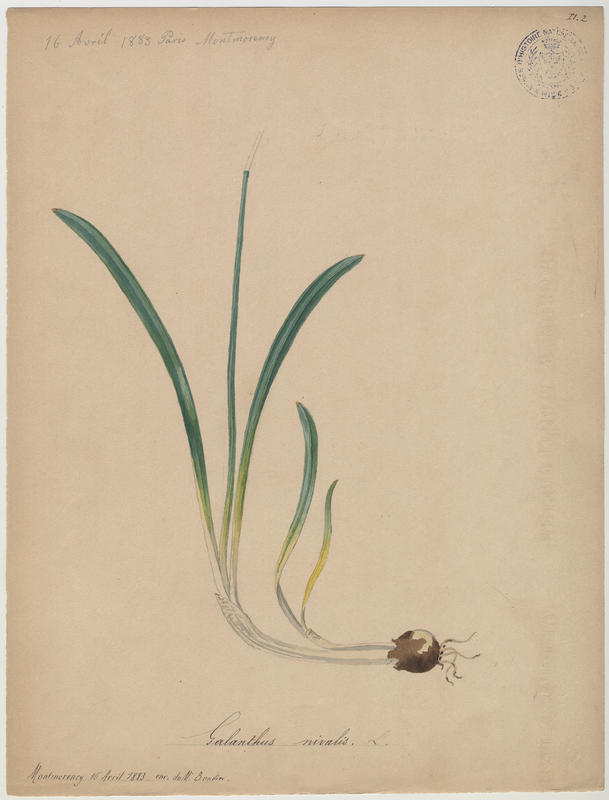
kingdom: Plantae
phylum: Tracheophyta
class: Liliopsida
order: Asparagales
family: Amaryllidaceae
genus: Galanthus
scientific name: Galanthus nivalis
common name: Snowdrop
